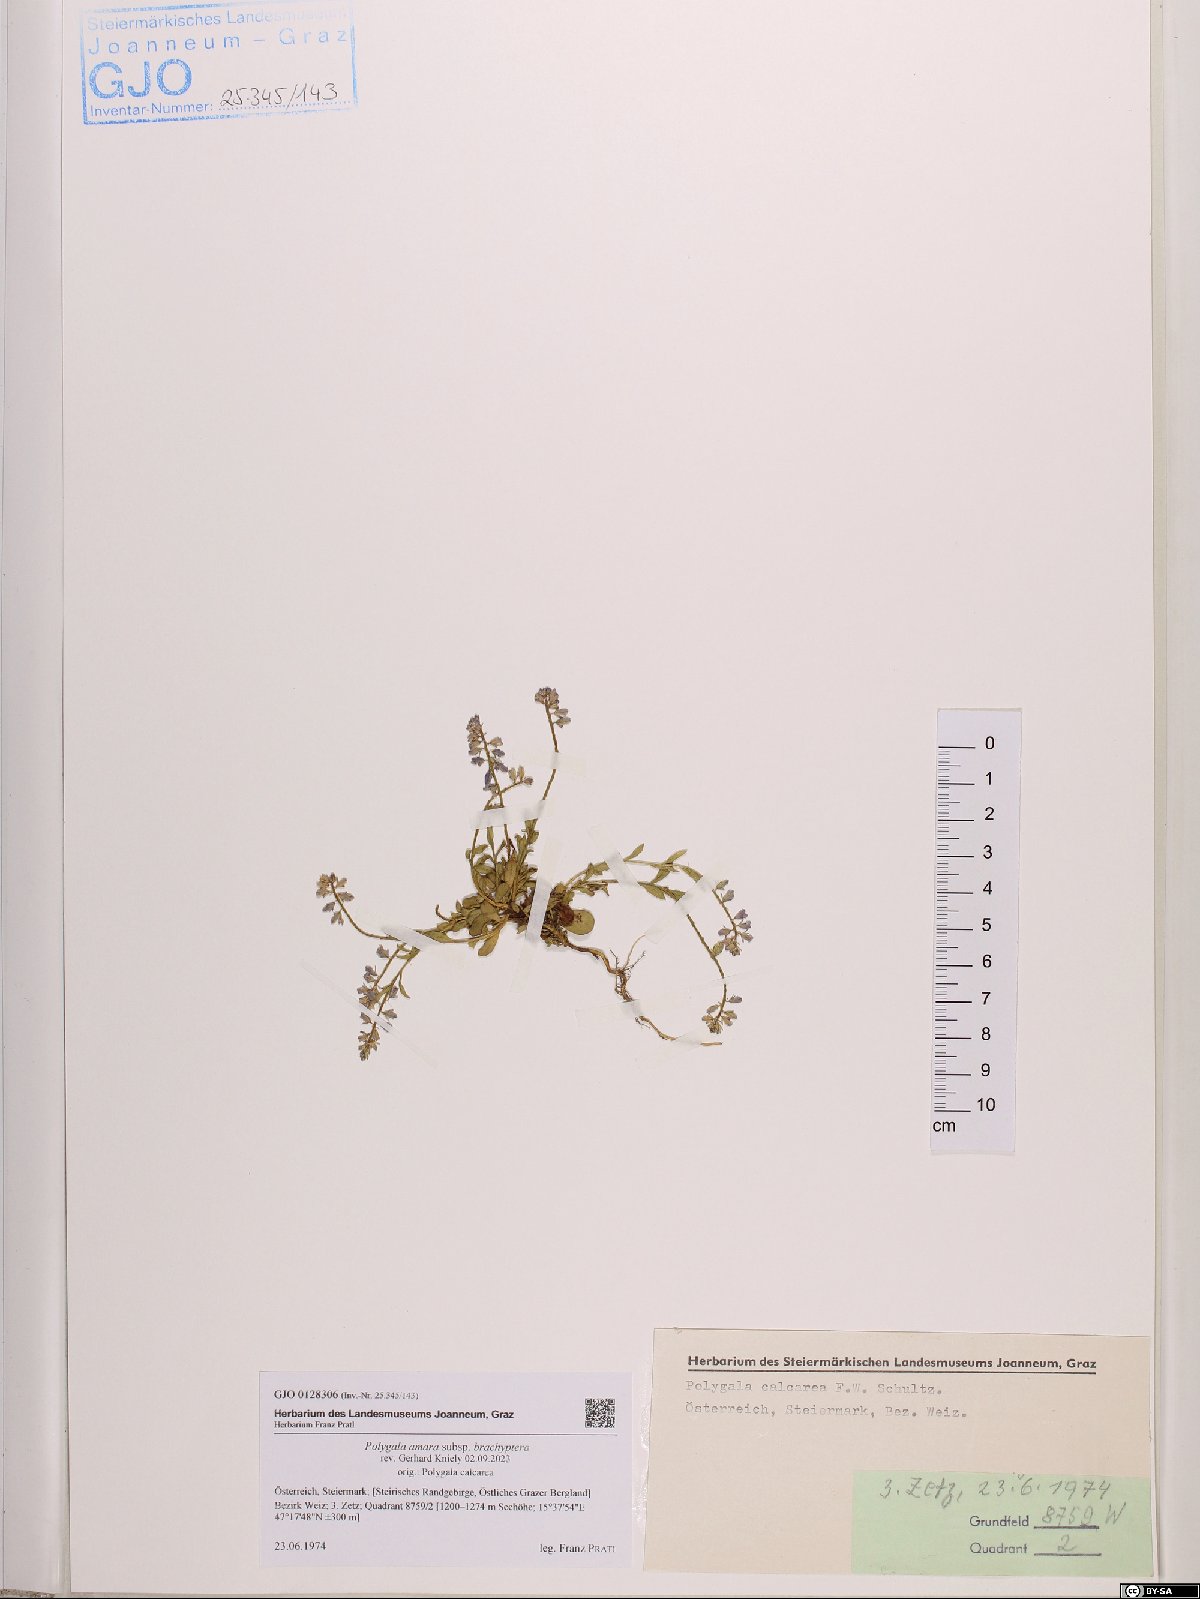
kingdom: Plantae
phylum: Tracheophyta
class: Magnoliopsida
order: Fabales
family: Polygalaceae
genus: Polygala
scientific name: Polygala amara
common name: Milkwort
